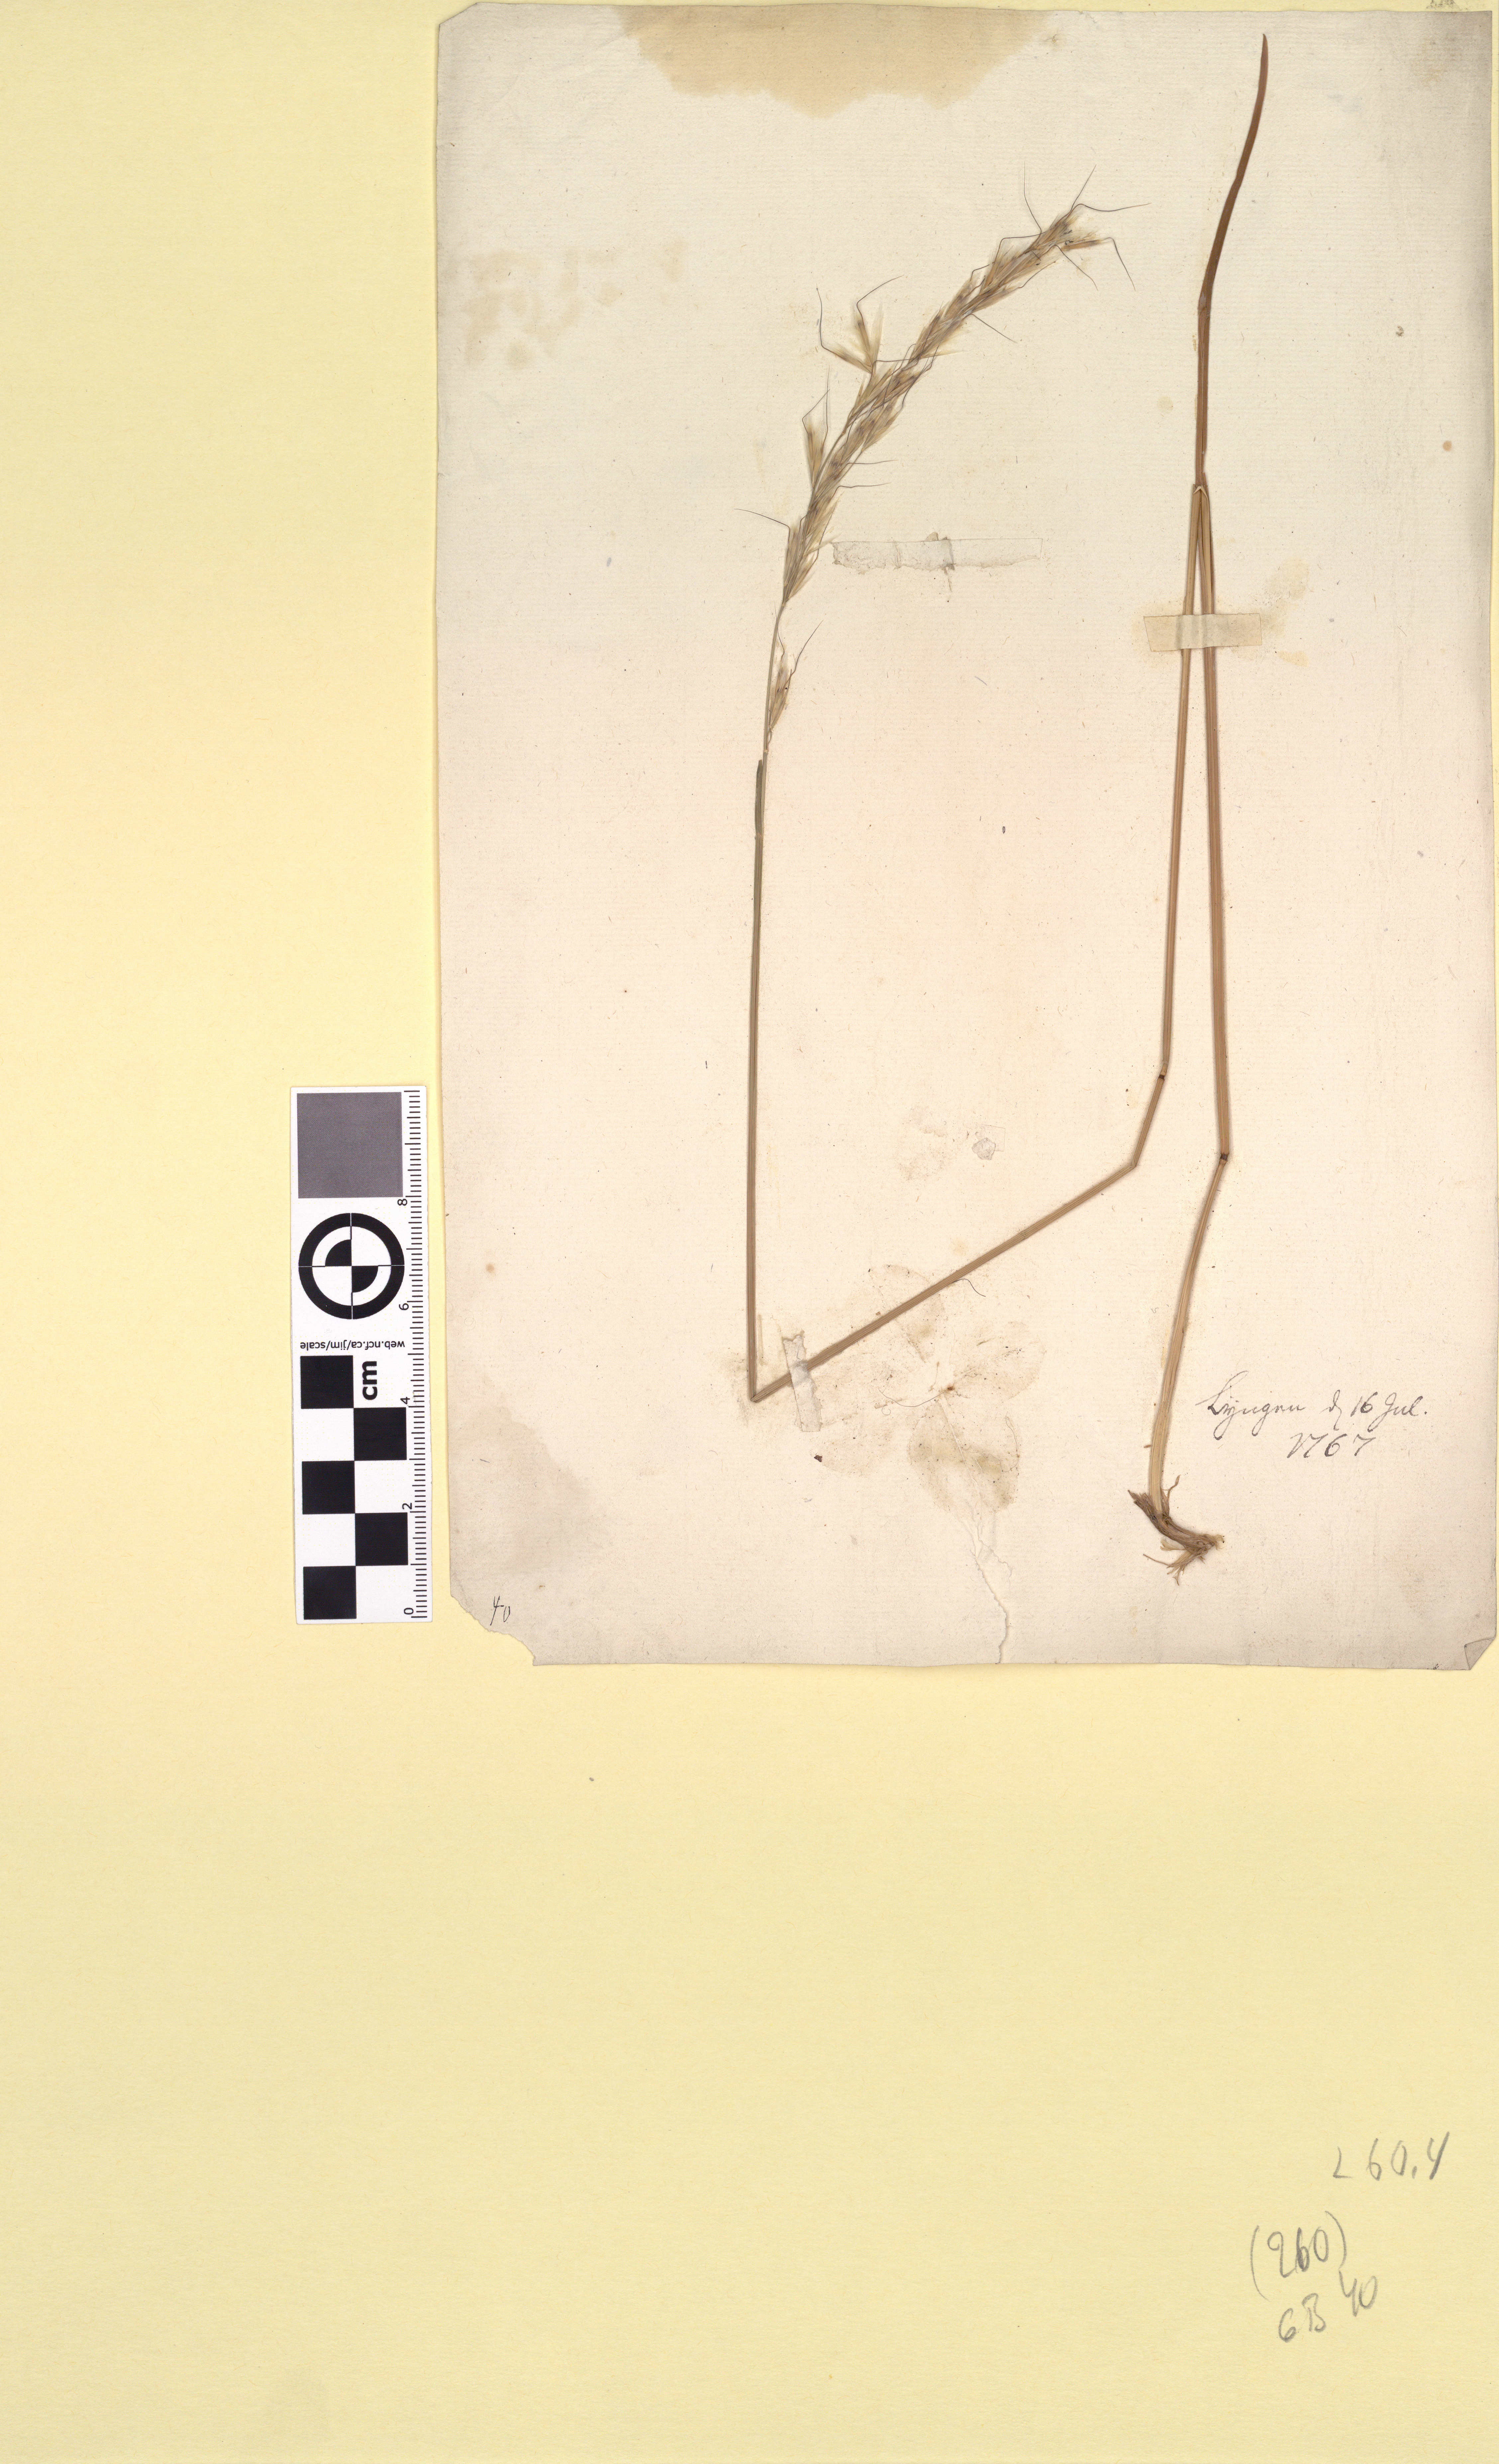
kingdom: Plantae
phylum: Tracheophyta
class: Liliopsida
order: Poales
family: Poaceae
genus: Avenula
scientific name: Avenula pubescens
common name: Downy alpine oatgrass
